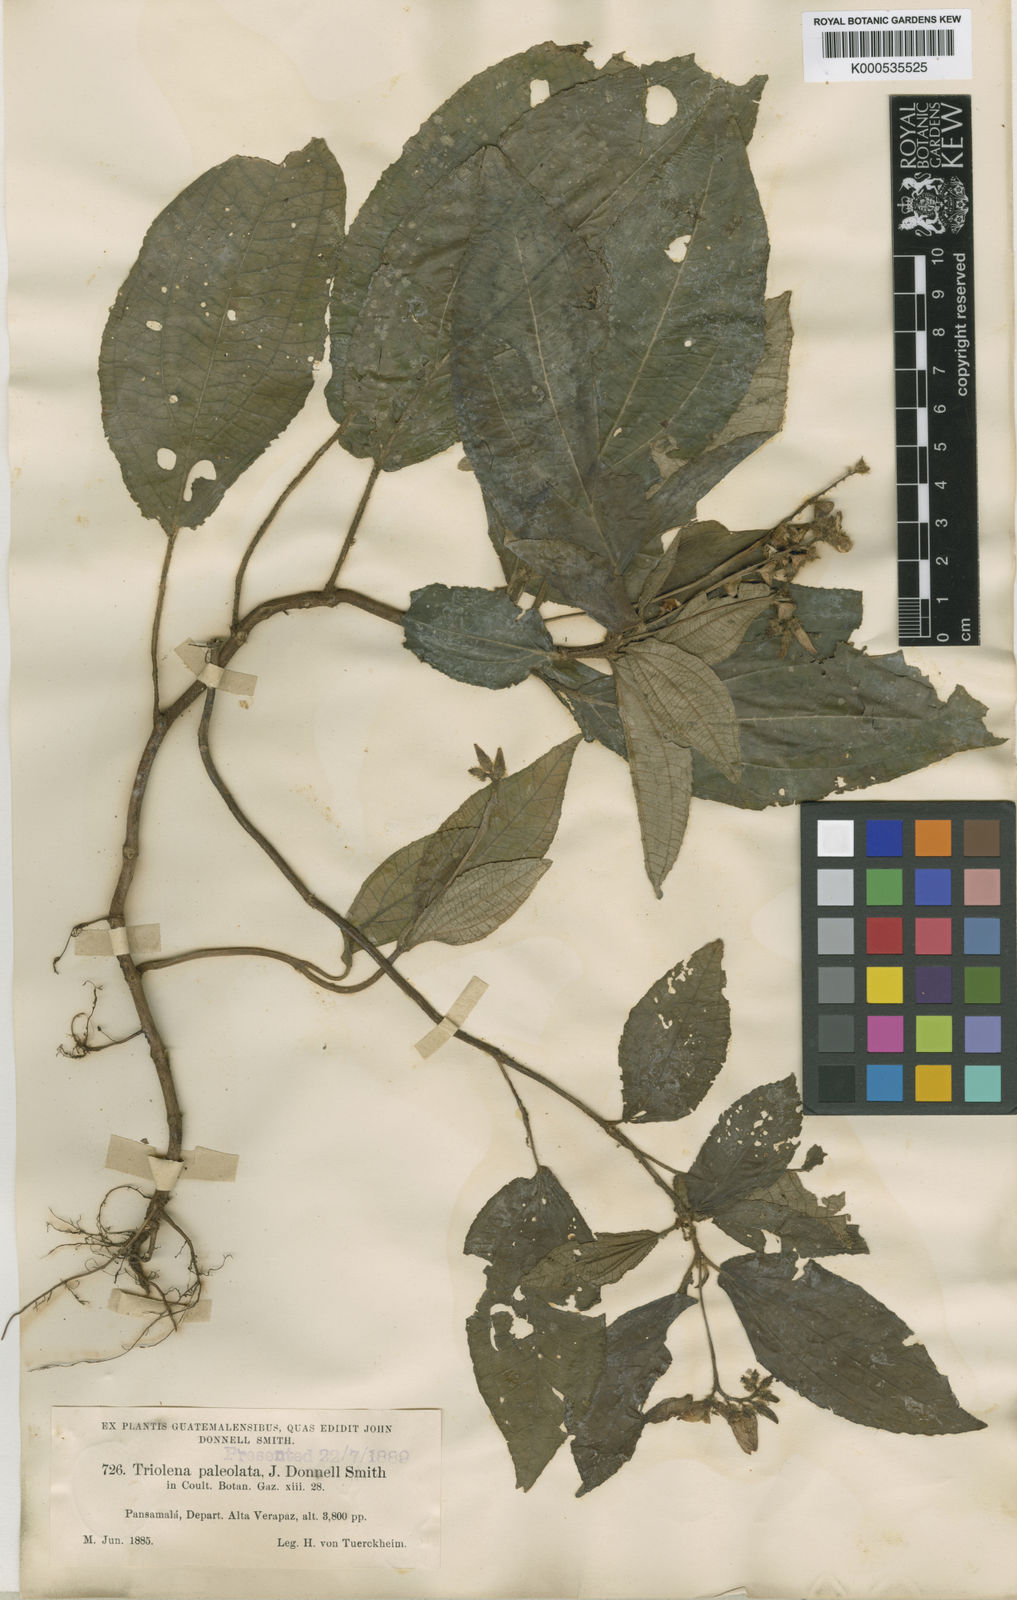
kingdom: Plantae
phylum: Tracheophyta
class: Magnoliopsida
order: Myrtales
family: Melastomataceae
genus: Triolena
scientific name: Triolena paleolata
